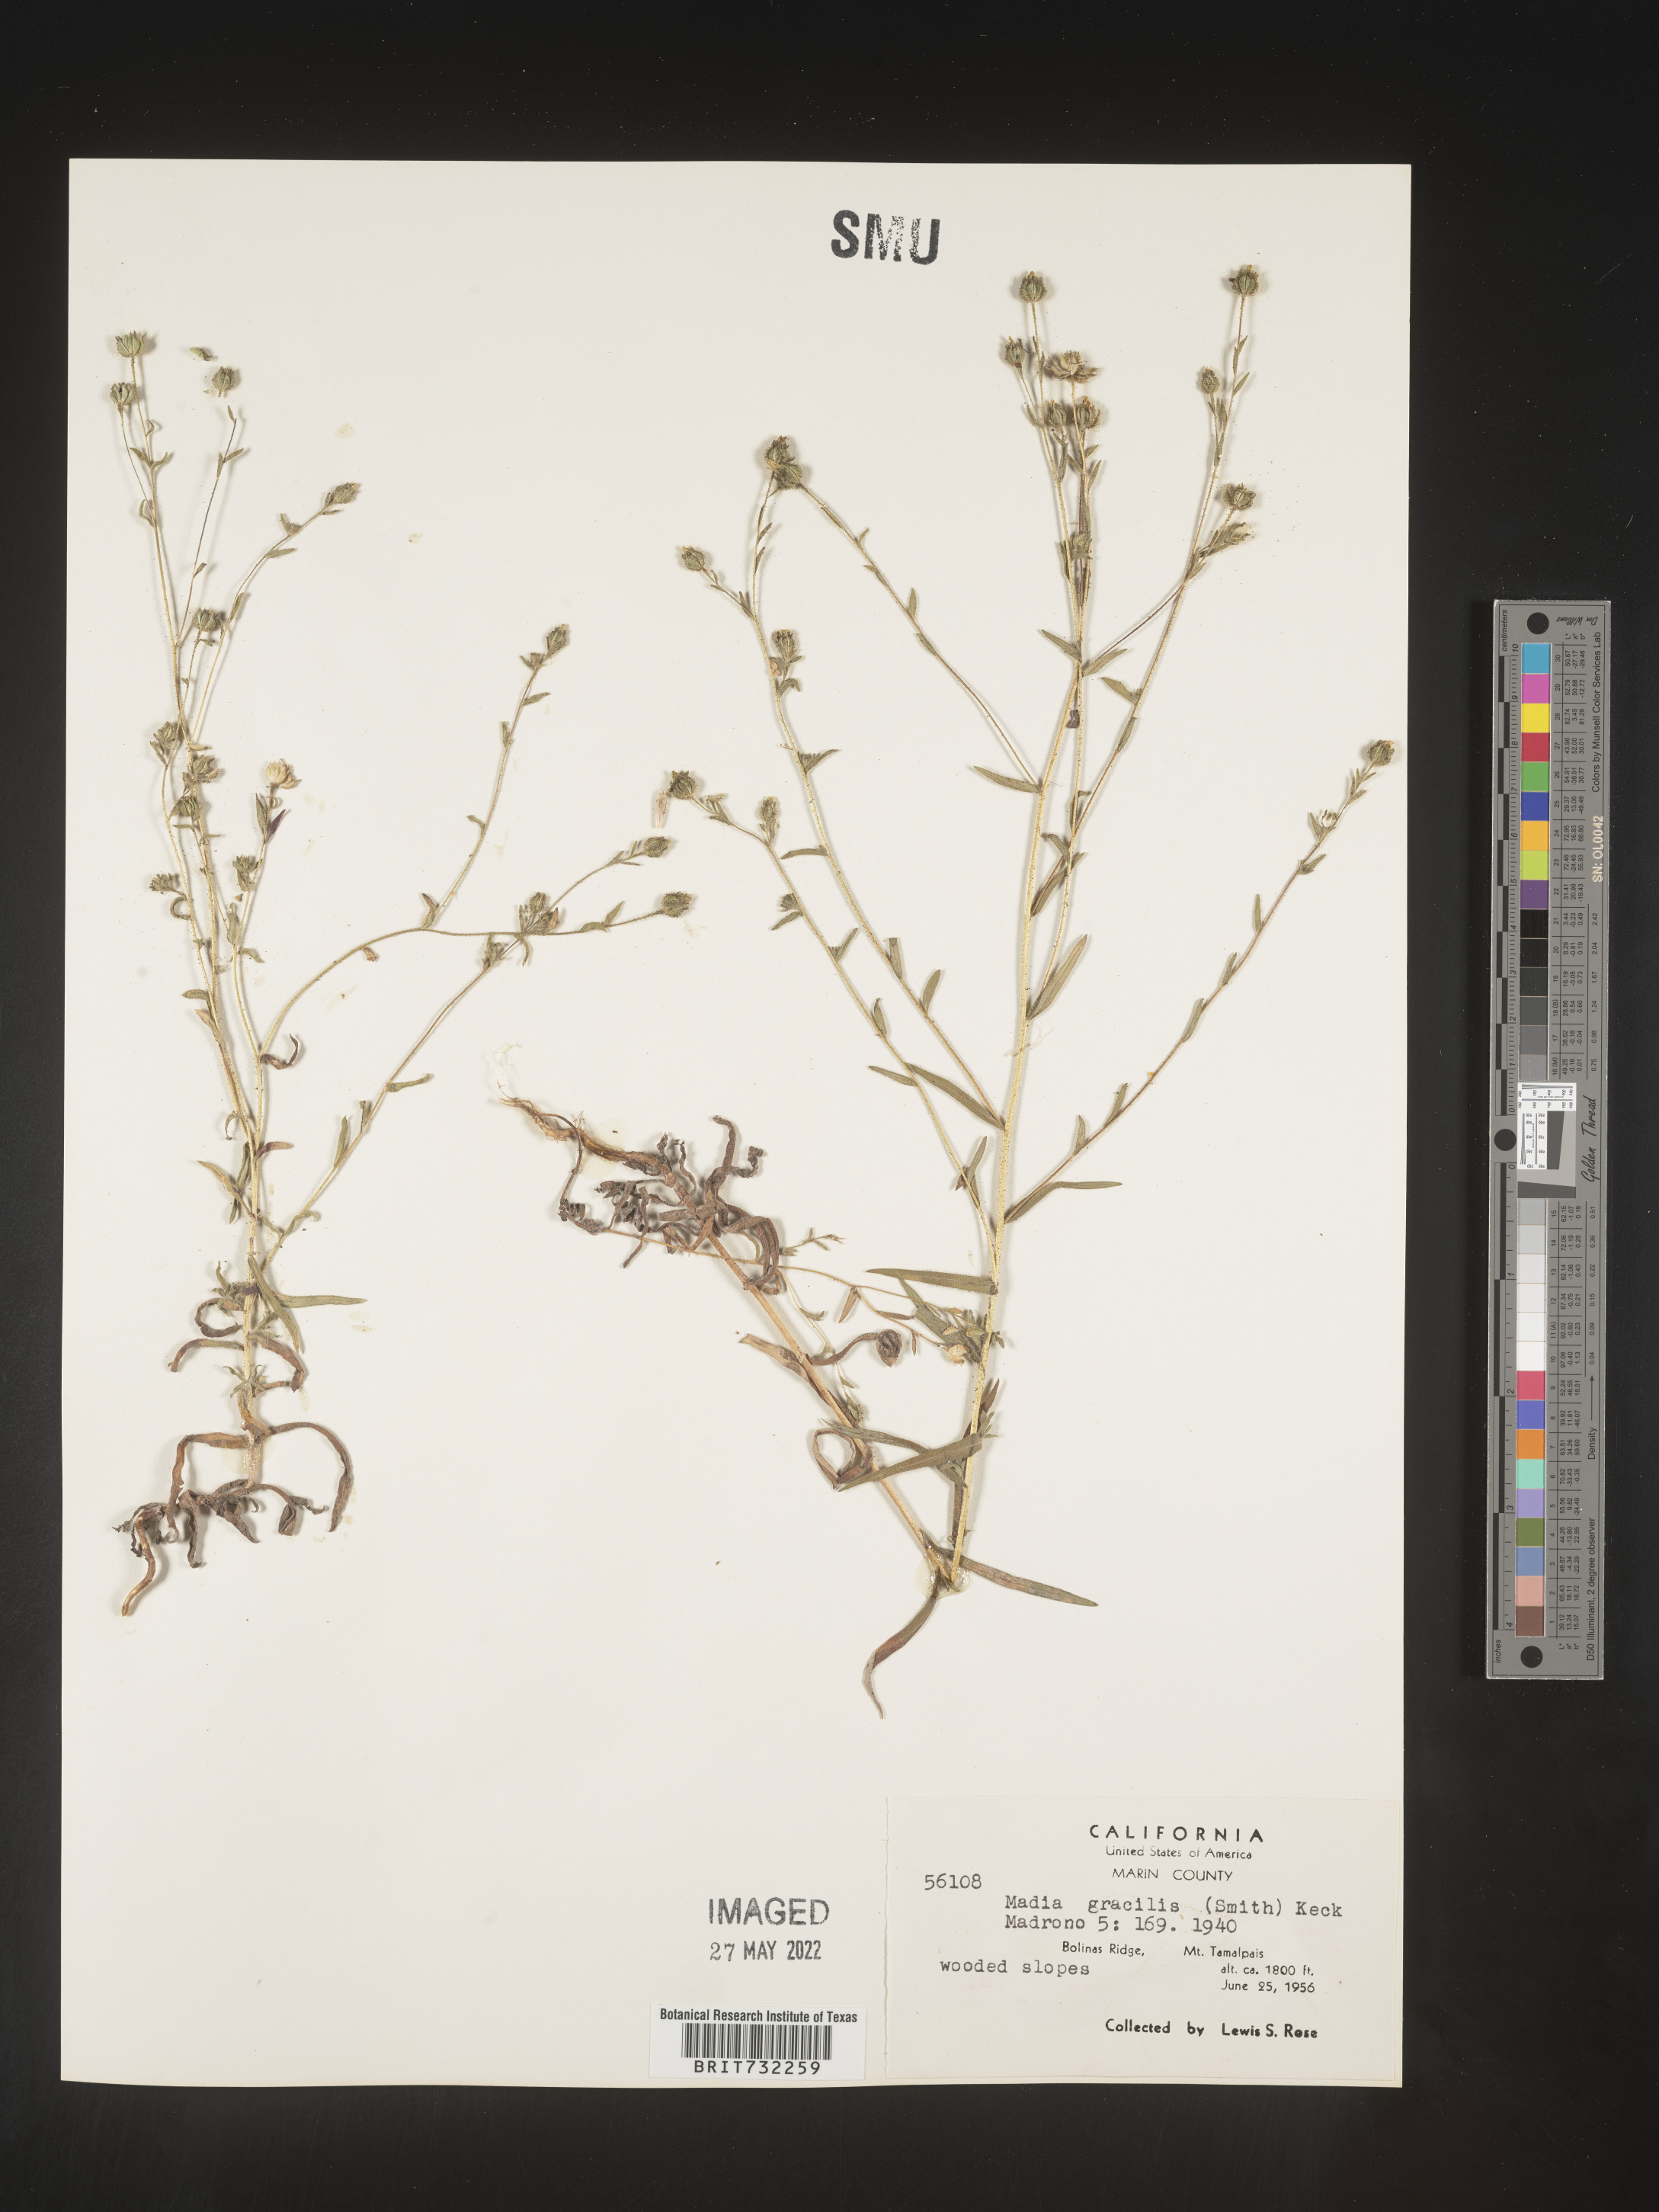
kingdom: Plantae
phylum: Tracheophyta
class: Magnoliopsida
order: Asterales
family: Asteraceae
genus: Madia
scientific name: Madia gracilis
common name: Grassy tarweed
